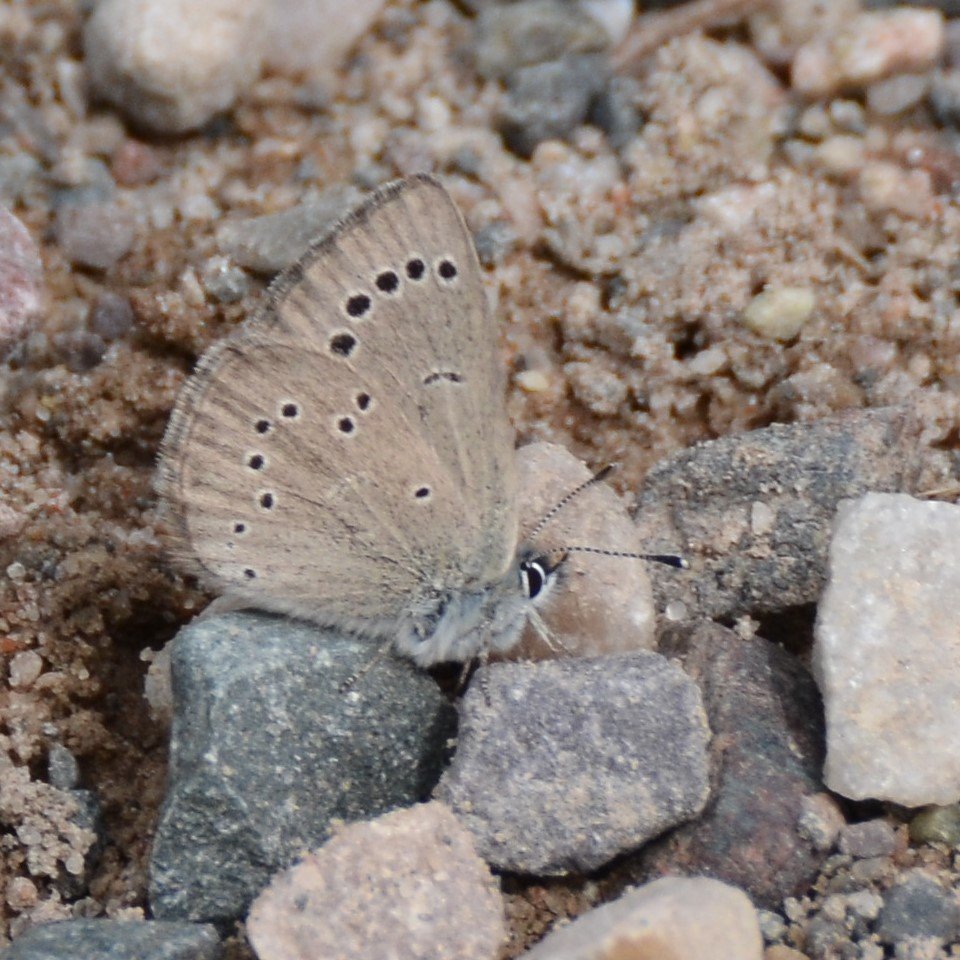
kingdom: Animalia
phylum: Arthropoda
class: Insecta
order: Lepidoptera
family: Lycaenidae
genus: Glaucopsyche
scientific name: Glaucopsyche lygdamus
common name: Silvery Blue
